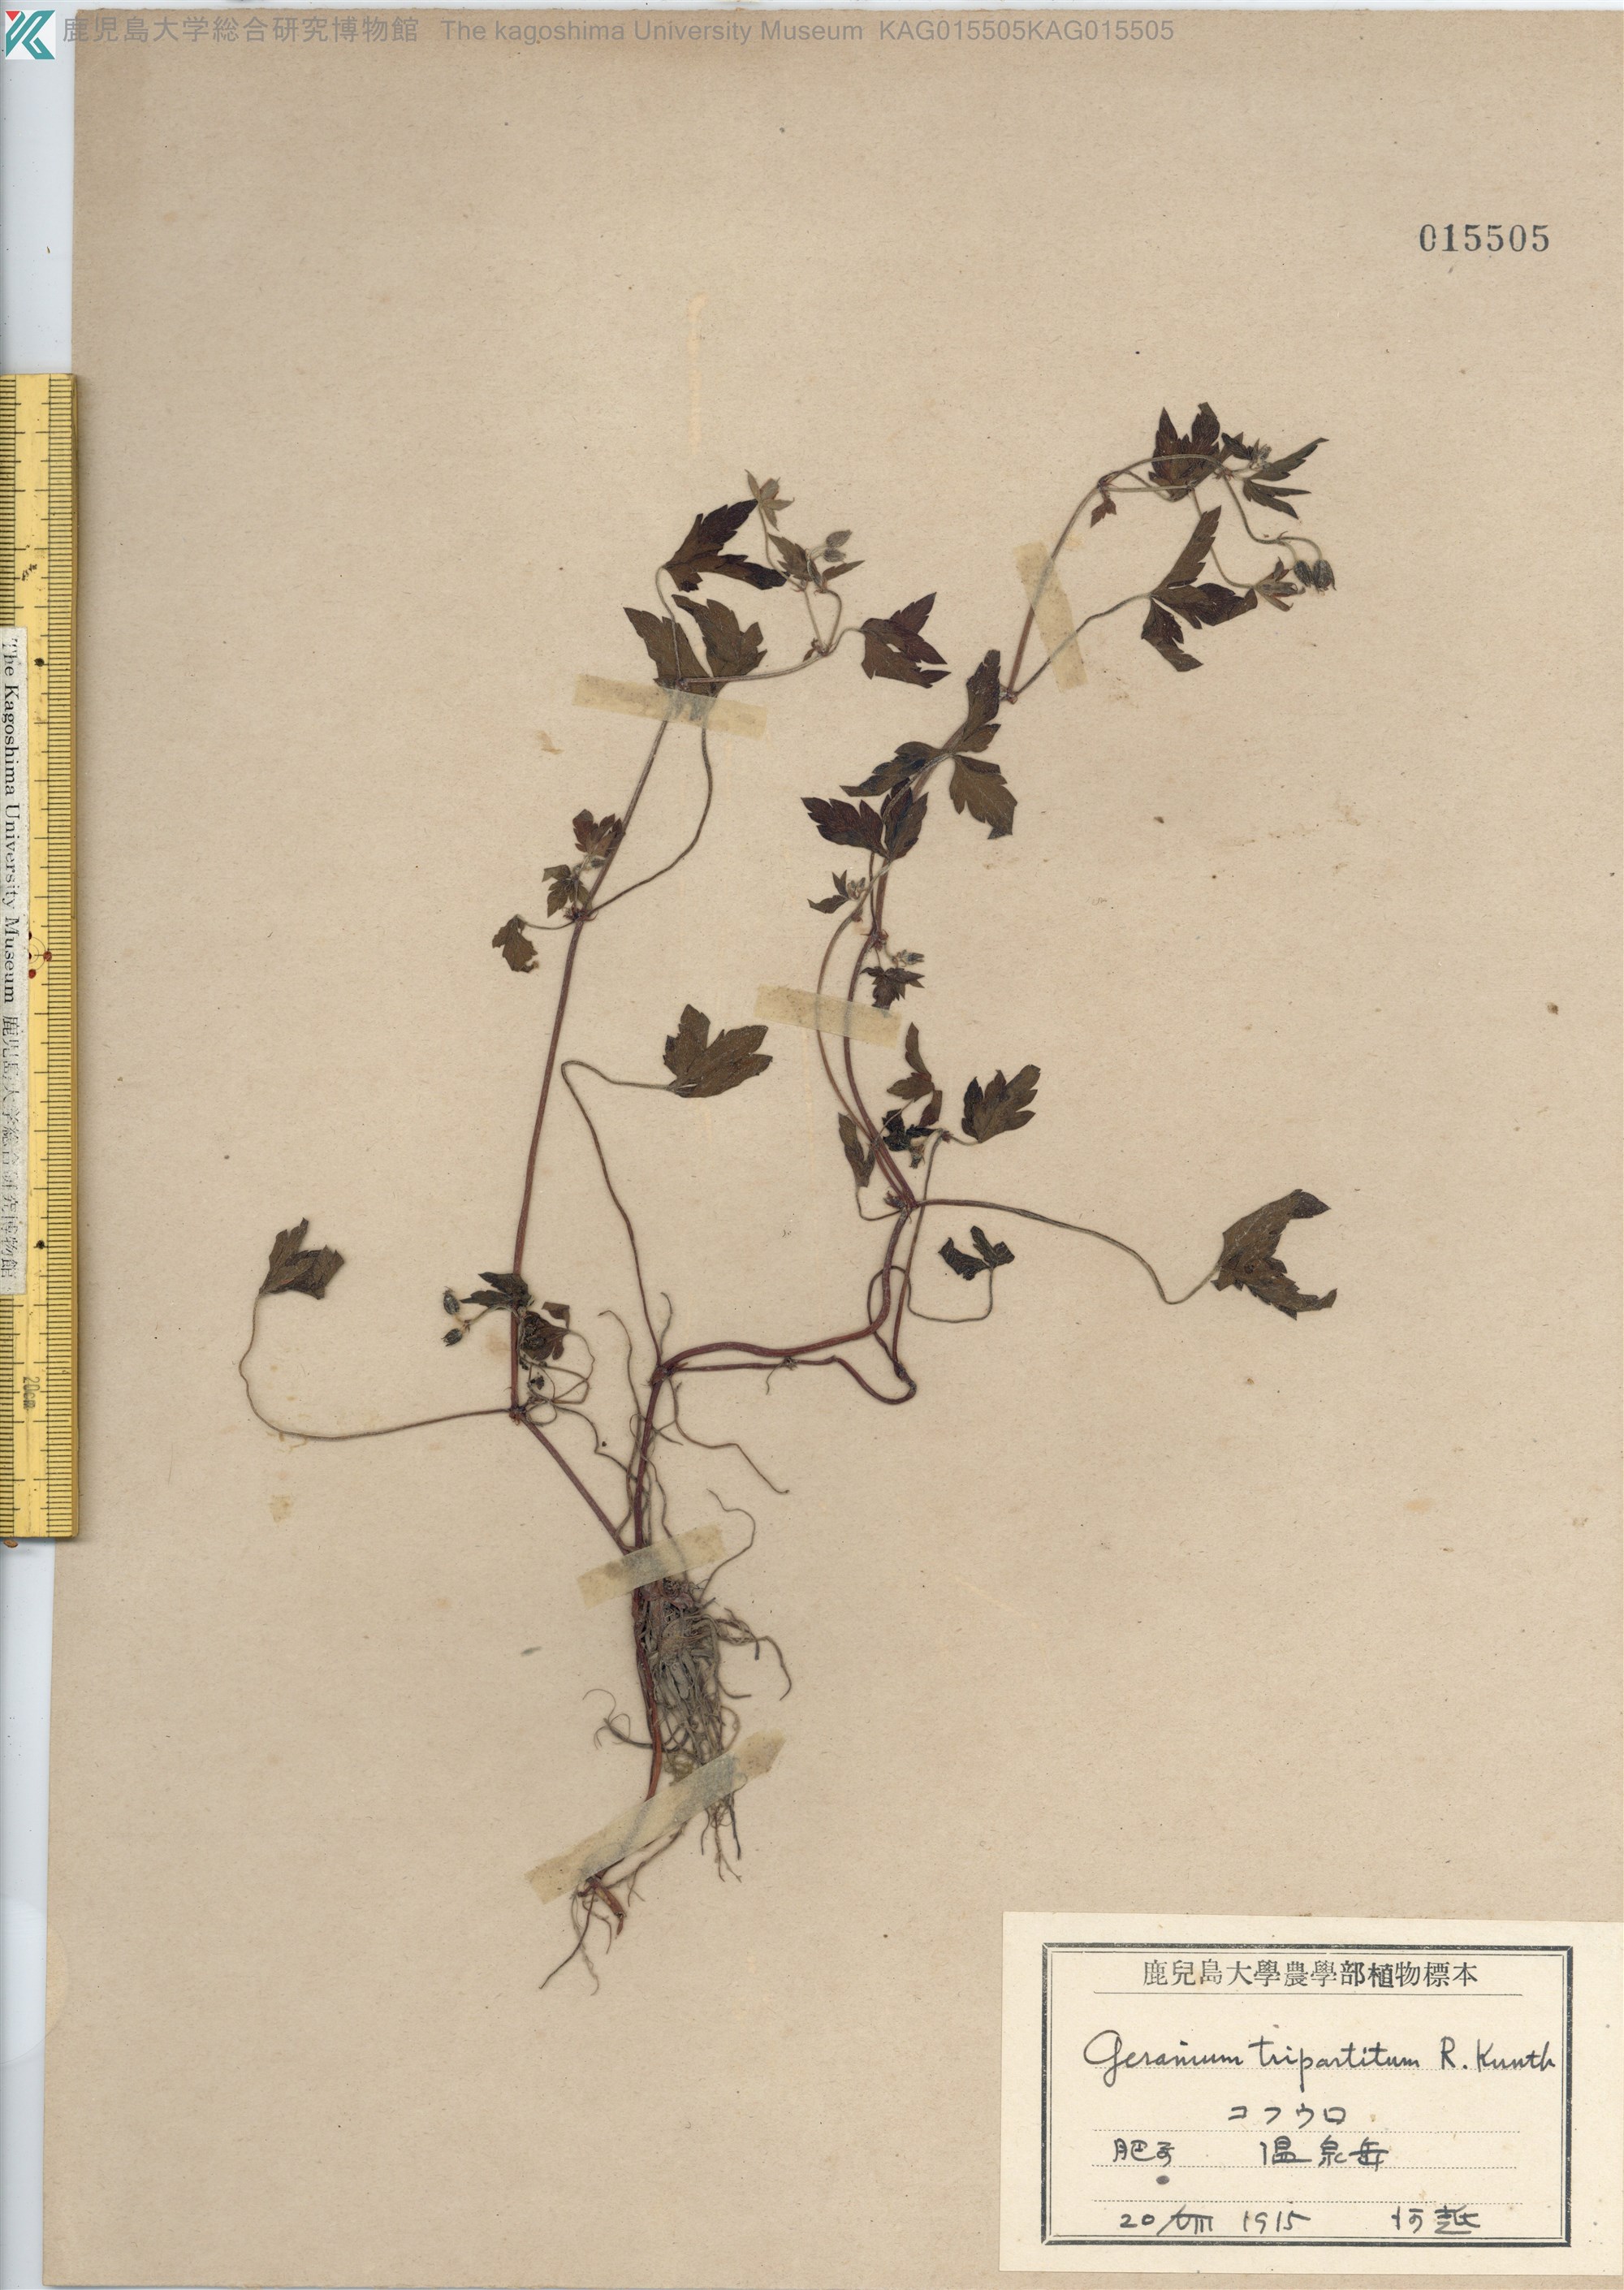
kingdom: Plantae
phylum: Tracheophyta
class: Magnoliopsida
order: Geraniales
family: Geraniaceae
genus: Geranium
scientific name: Geranium tripartitum
